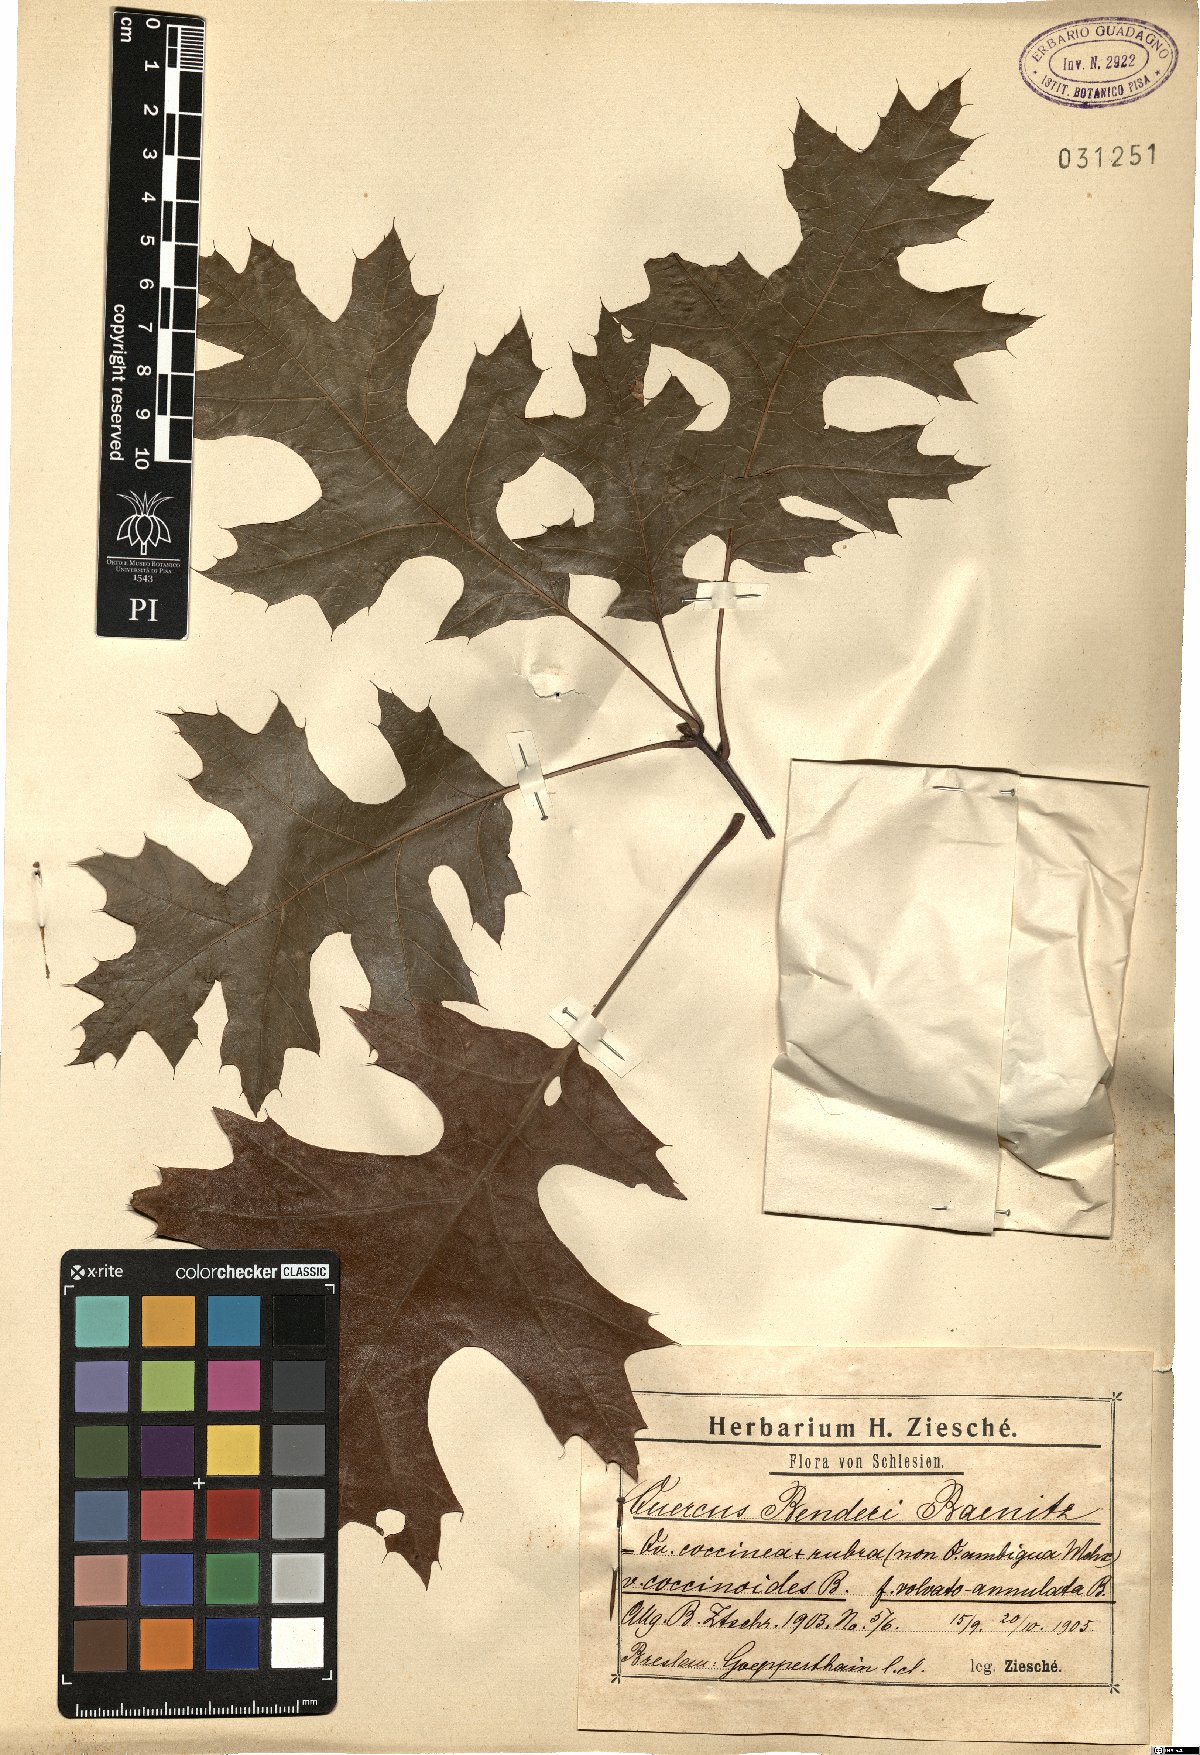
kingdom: Plantae
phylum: Tracheophyta
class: Magnoliopsida
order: Fagales
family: Fagaceae
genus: Quercus
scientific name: Quercus benderi
